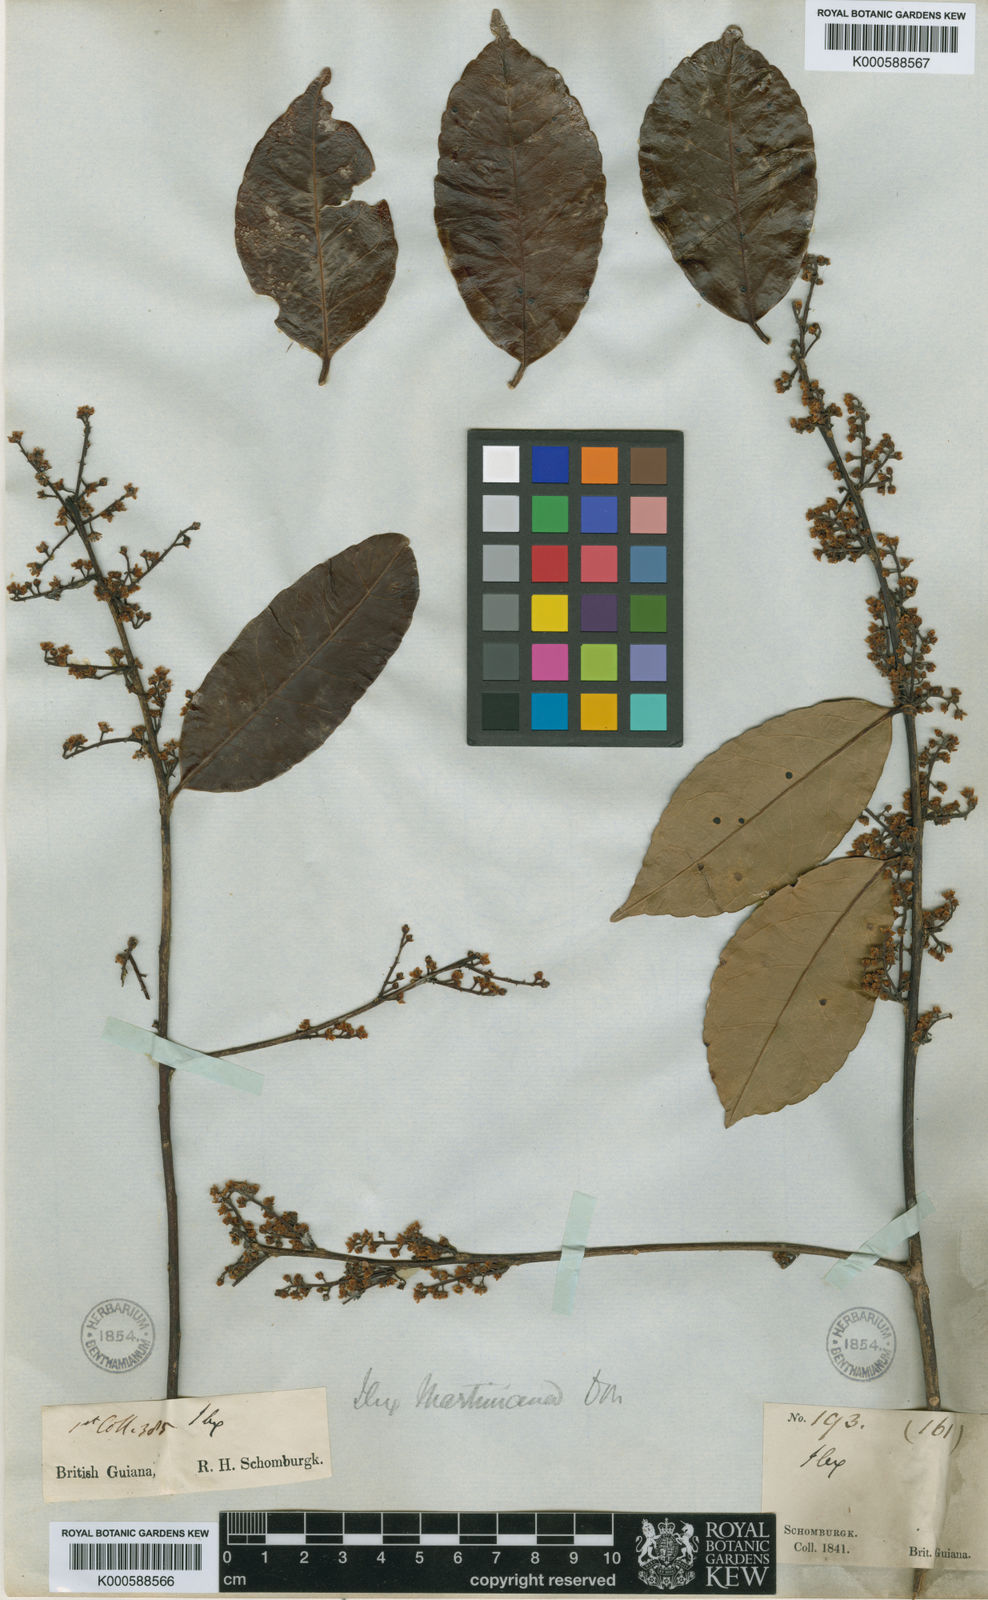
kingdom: Plantae
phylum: Tracheophyta
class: Magnoliopsida
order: Aquifoliales
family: Aquifoliaceae
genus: Ilex
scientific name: Ilex martiniana
